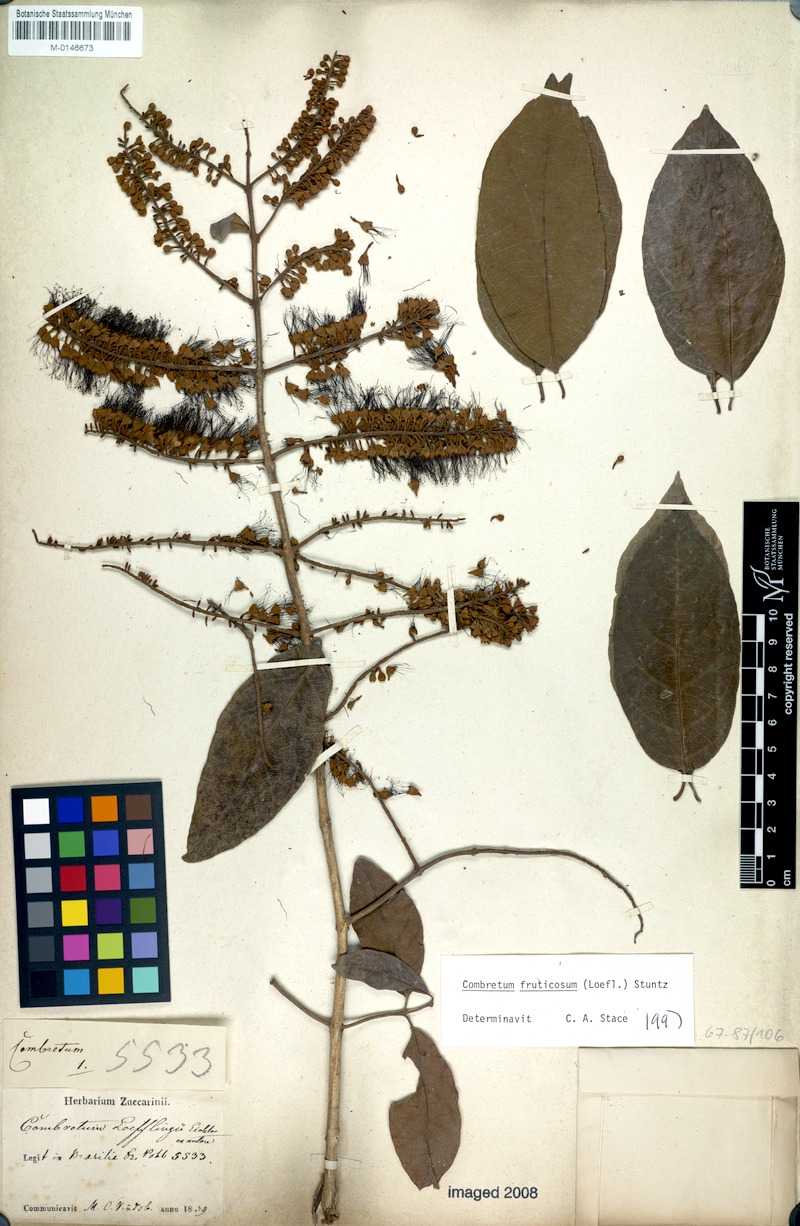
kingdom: Plantae
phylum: Tracheophyta
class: Magnoliopsida
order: Myrtales
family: Combretaceae
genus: Combretum
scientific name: Combretum fruticosum
